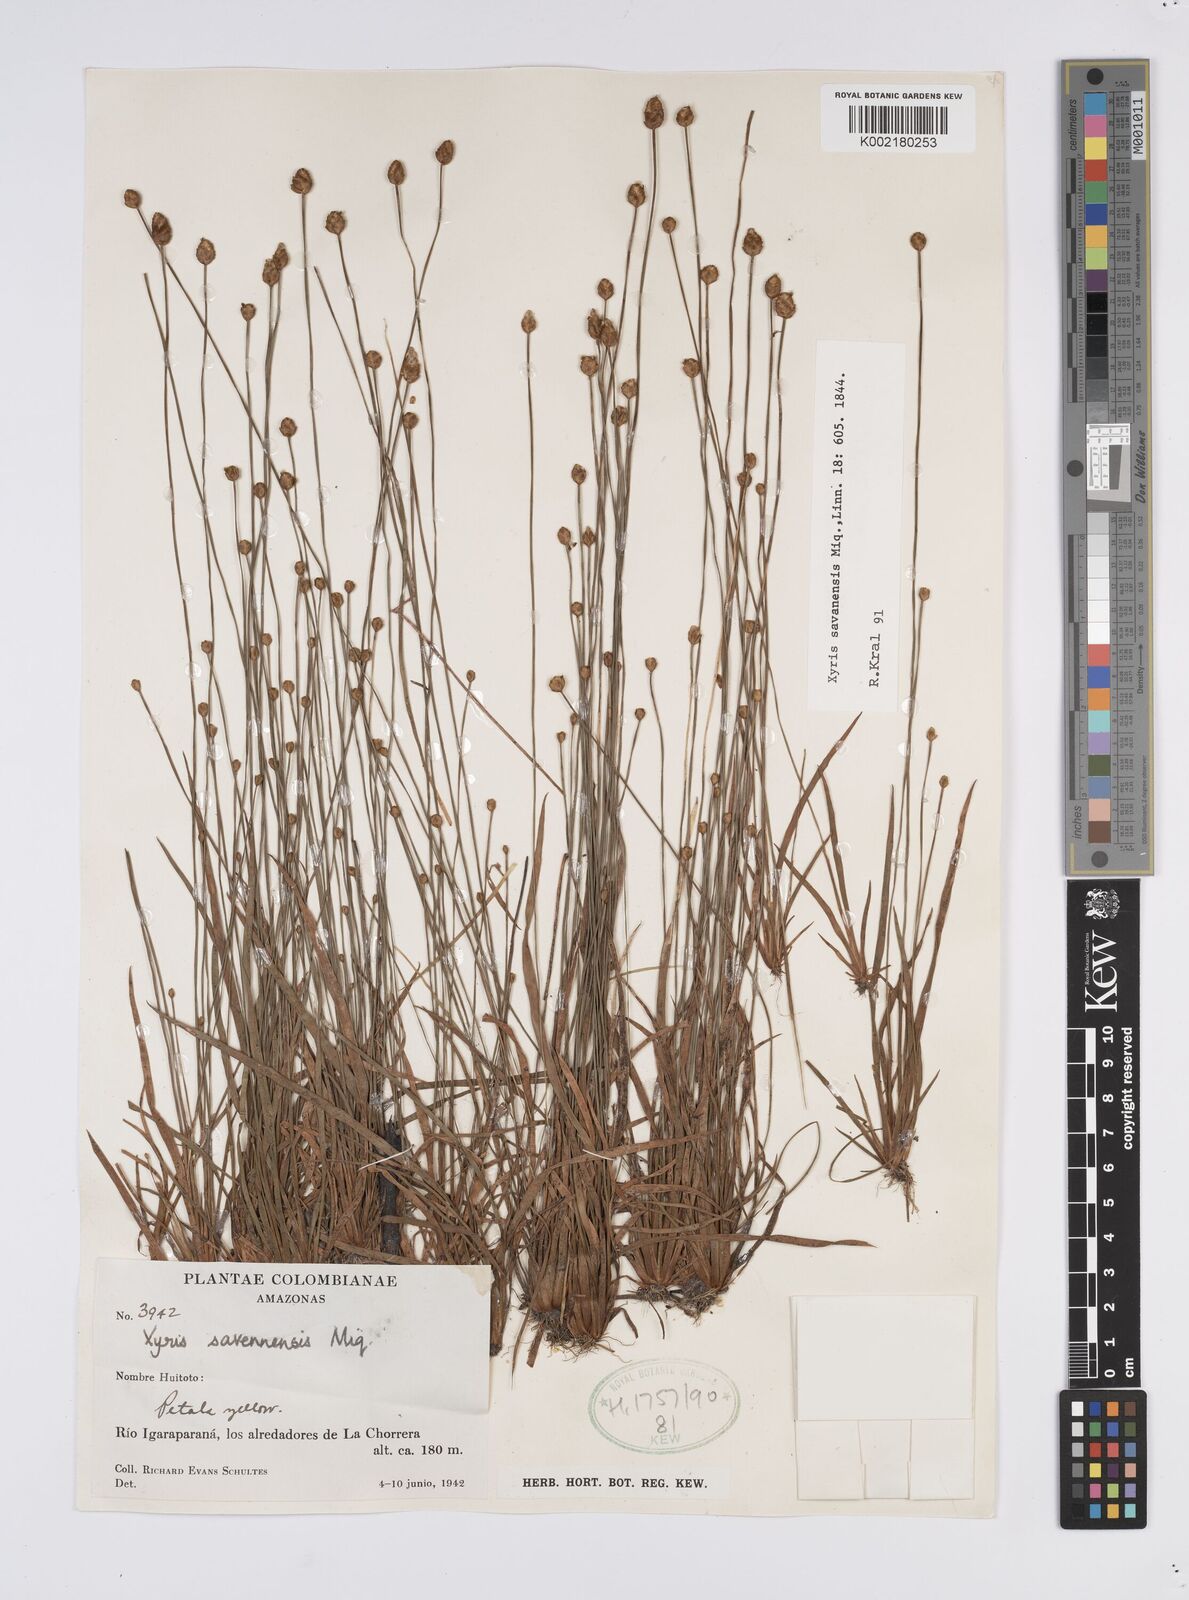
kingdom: Plantae
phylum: Tracheophyta
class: Liliopsida
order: Poales
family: Xyridaceae
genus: Xyris
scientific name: Xyris savanensis
